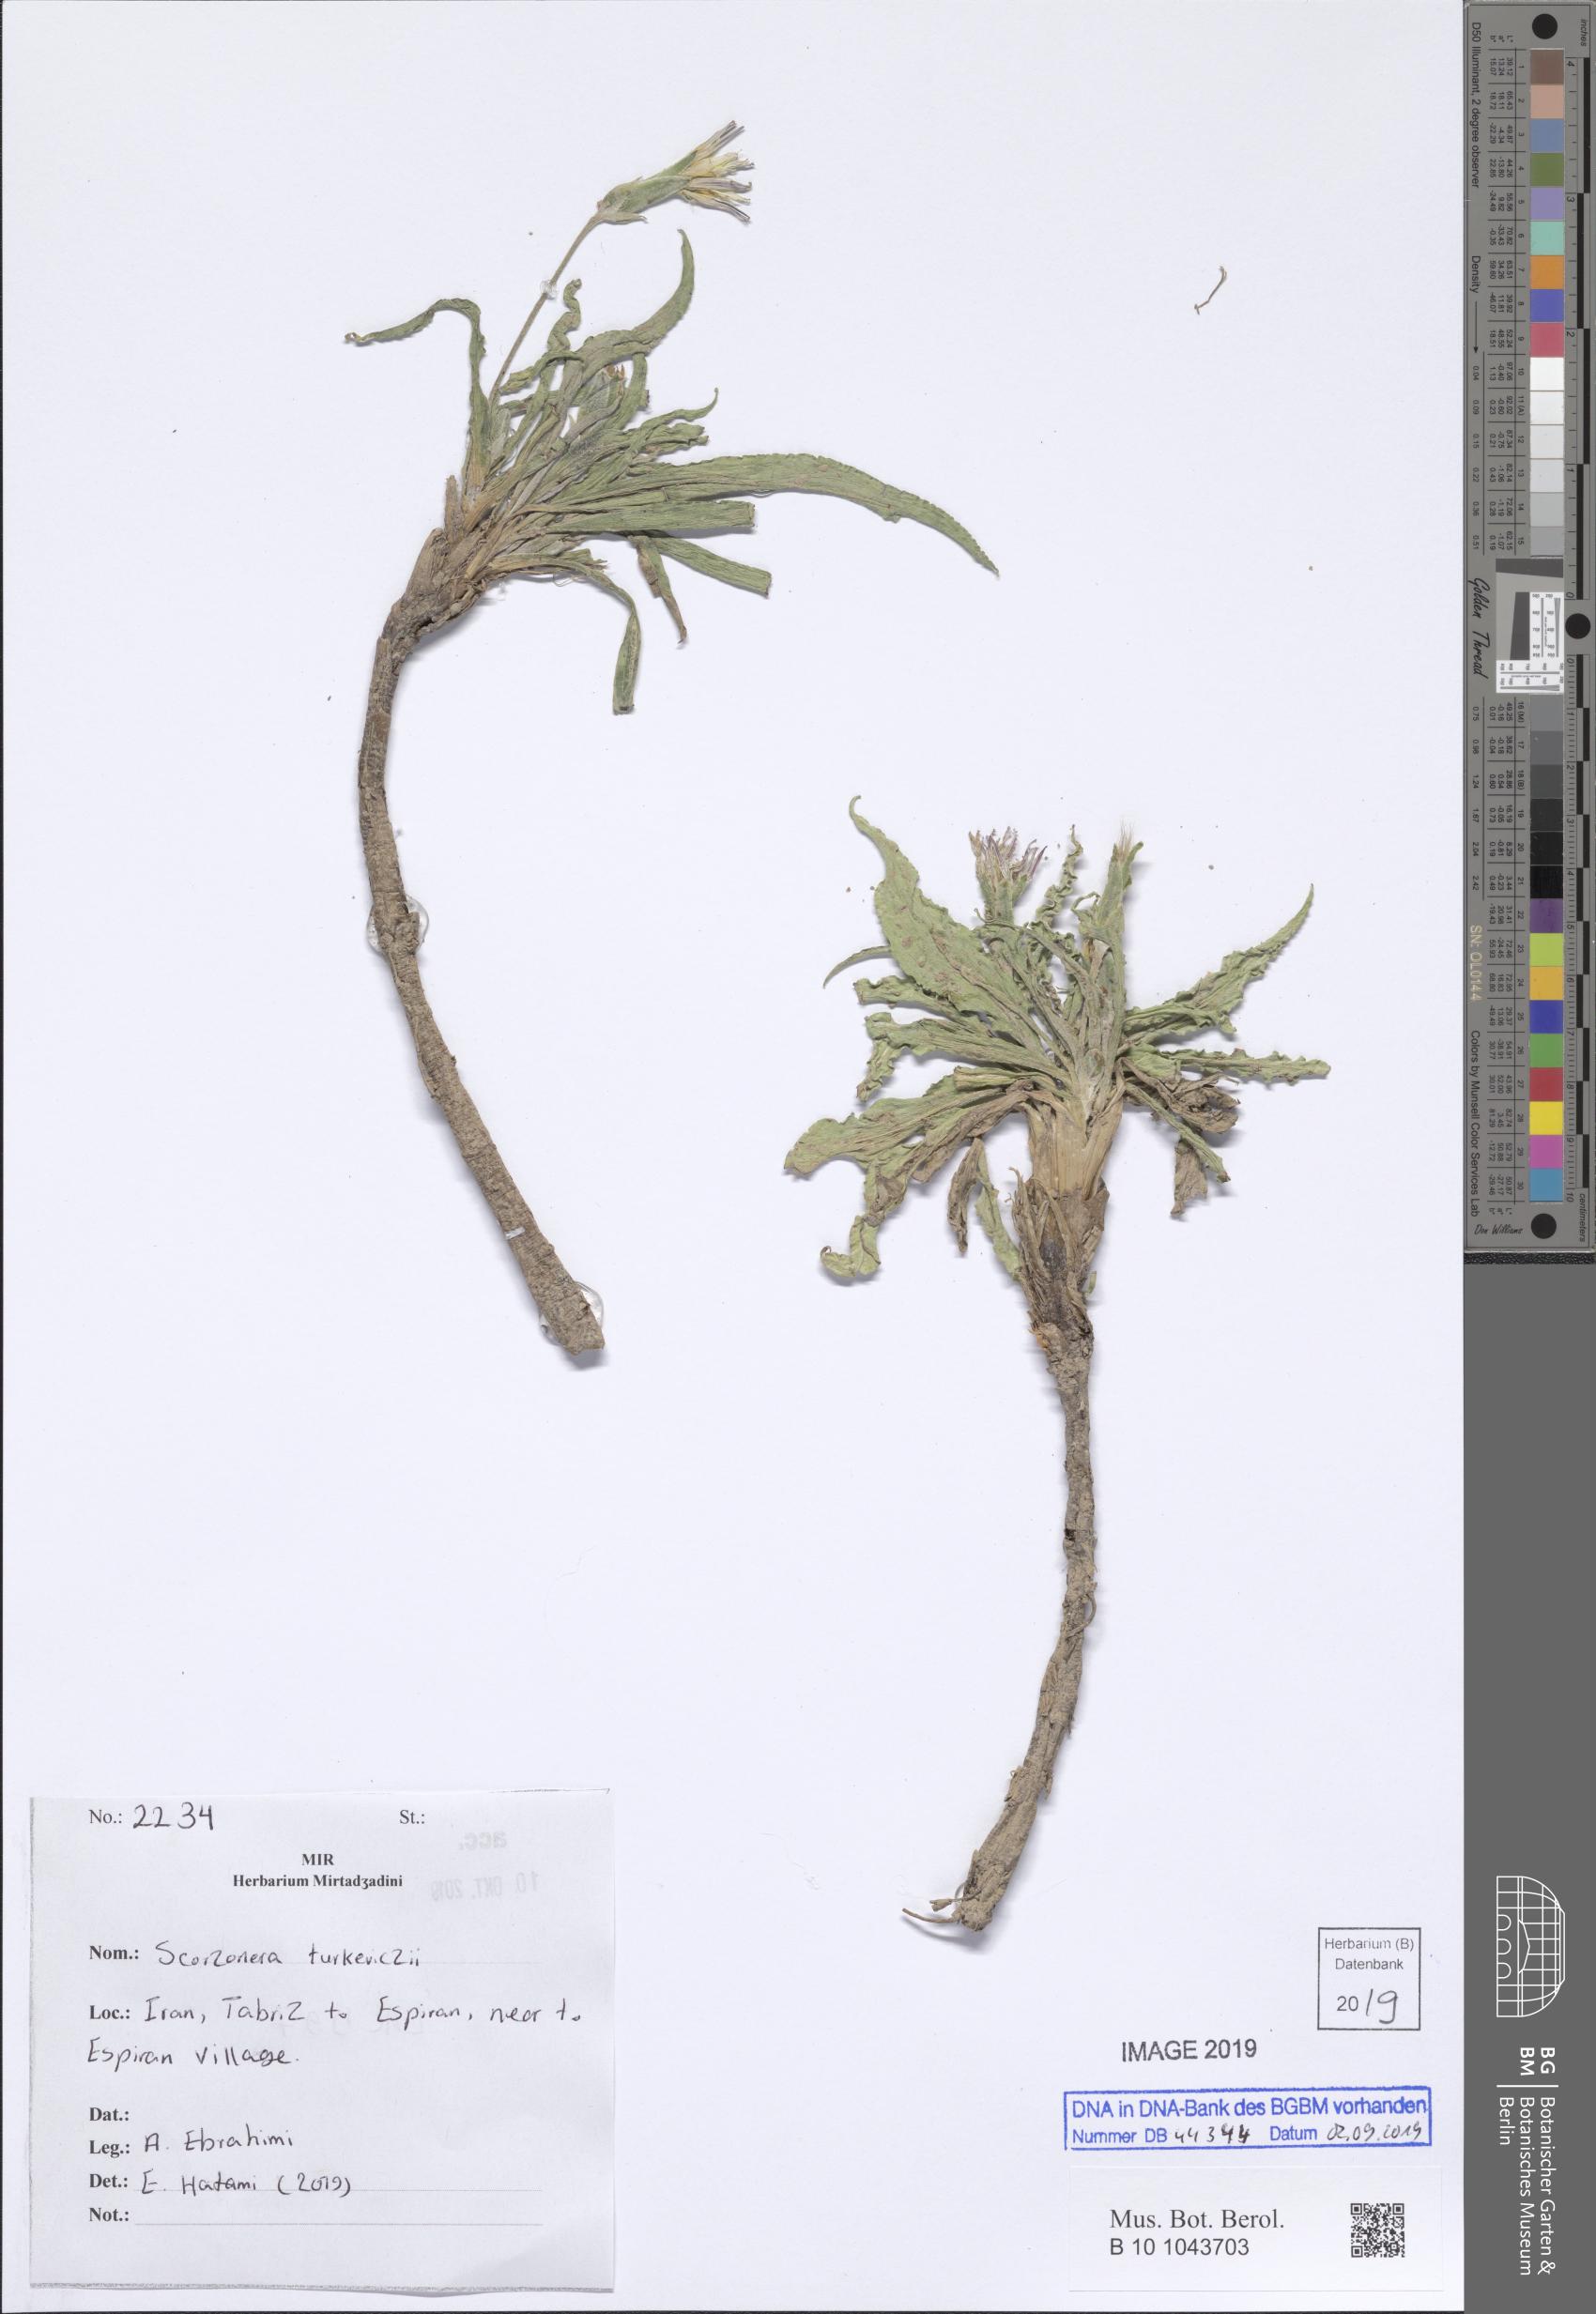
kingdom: Plantae
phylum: Tracheophyta
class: Magnoliopsida
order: Asterales
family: Asteraceae
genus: Pseudopodospermum
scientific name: Pseudopodospermum turkeviczii
